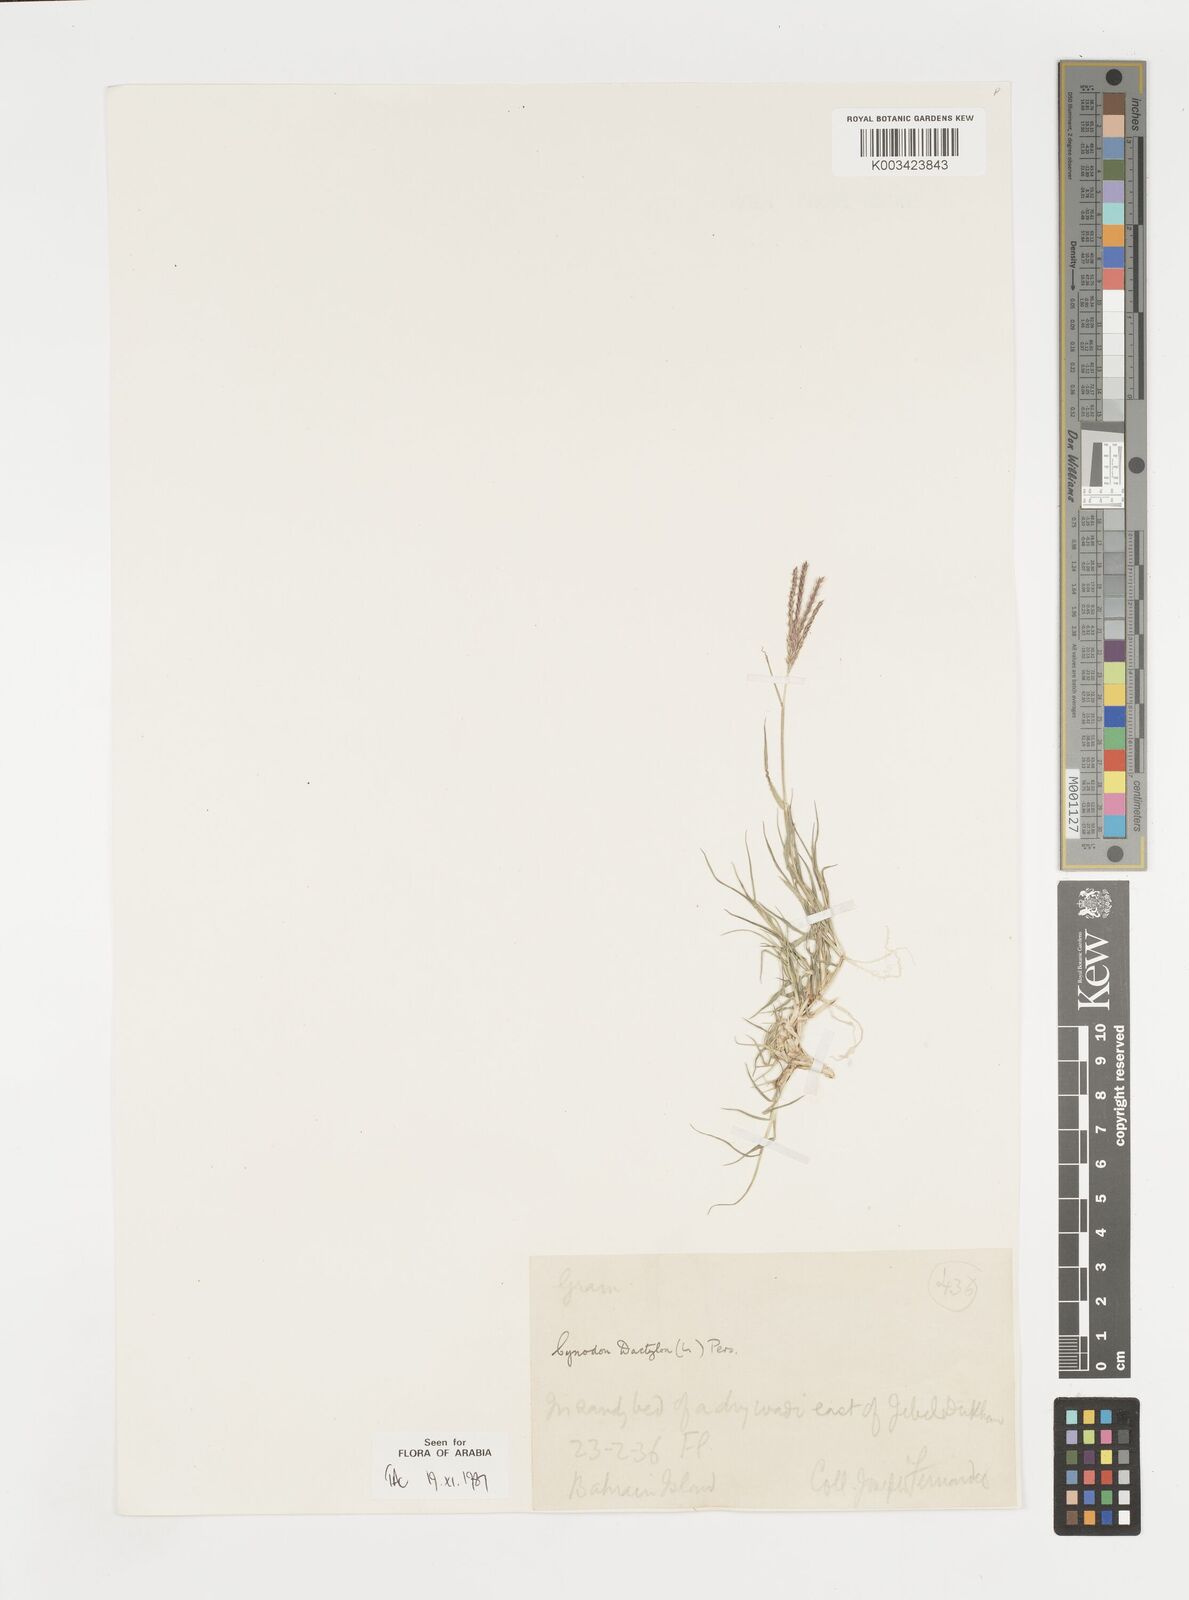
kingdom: Plantae
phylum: Tracheophyta
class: Liliopsida
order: Poales
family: Poaceae
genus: Cynodon
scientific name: Cynodon dactylon
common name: Bermuda grass
